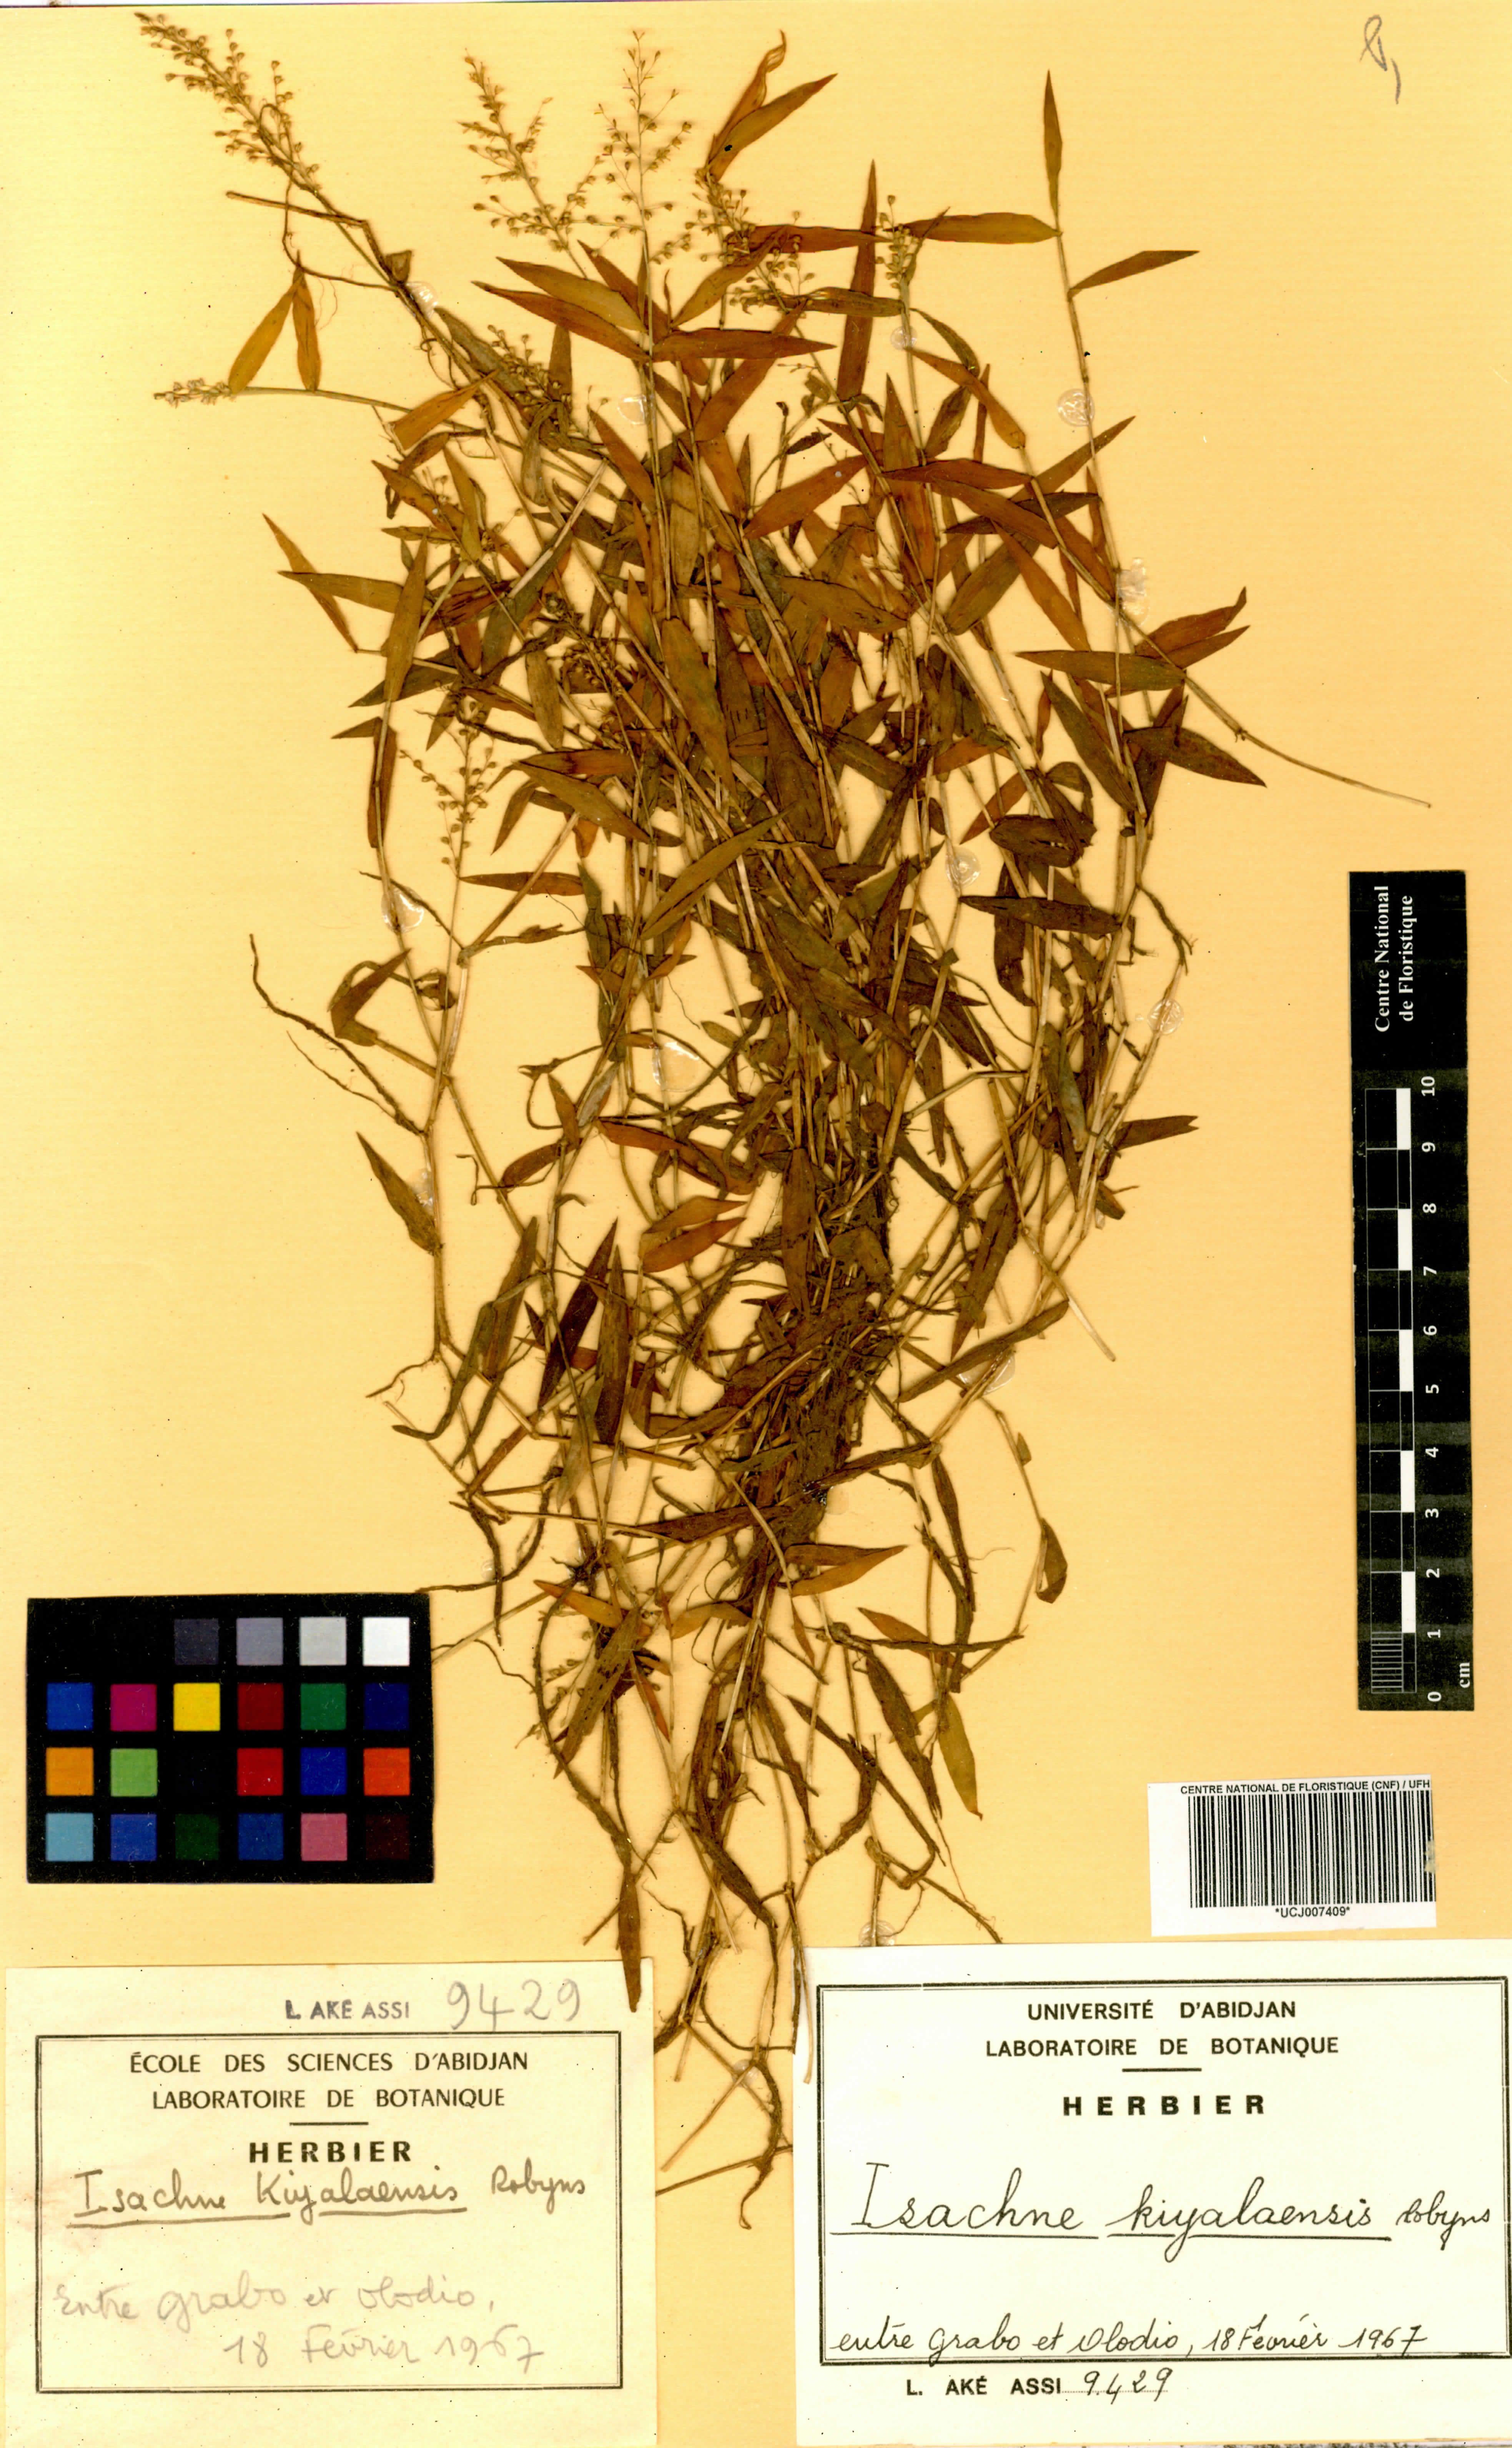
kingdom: Plantae
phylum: Tracheophyta
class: Liliopsida
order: Poales
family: Poaceae
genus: Isachne
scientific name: Isachne kiyalaensis
